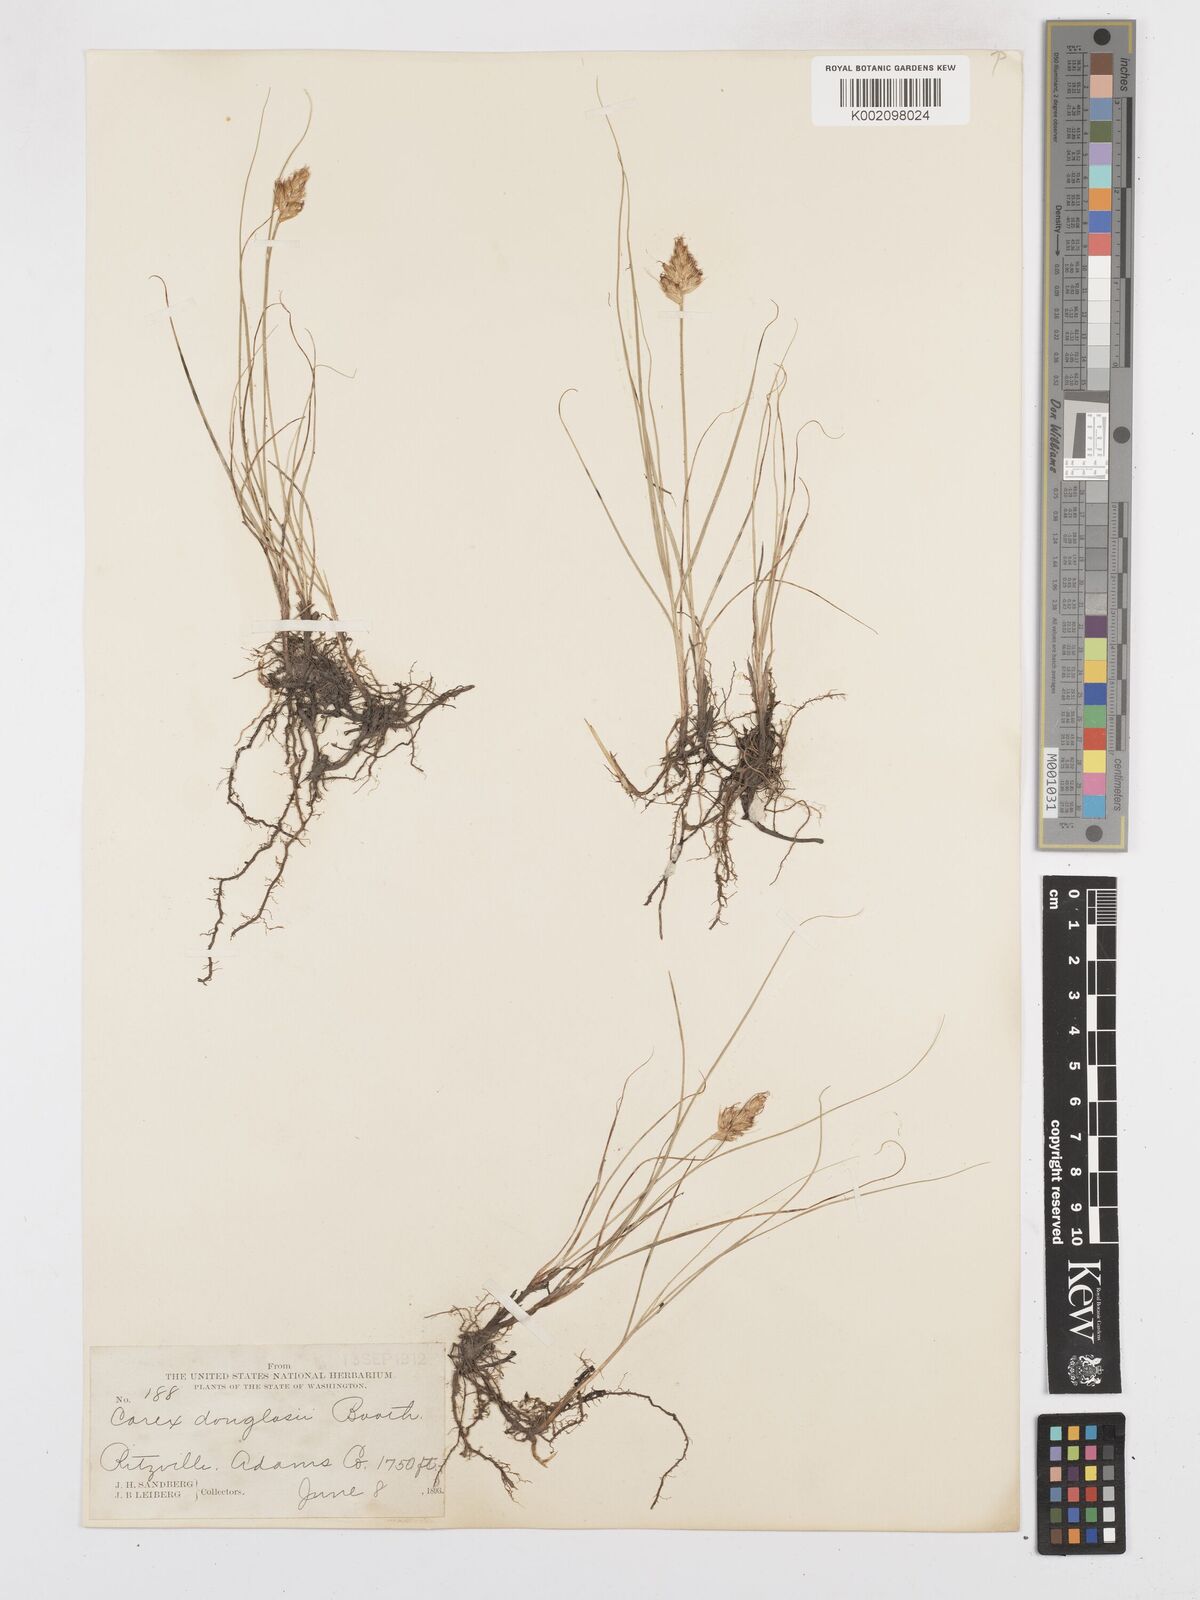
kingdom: Plantae
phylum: Tracheophyta
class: Liliopsida
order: Poales
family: Cyperaceae
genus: Carex
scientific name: Carex douglasii
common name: Douglas' sedge
